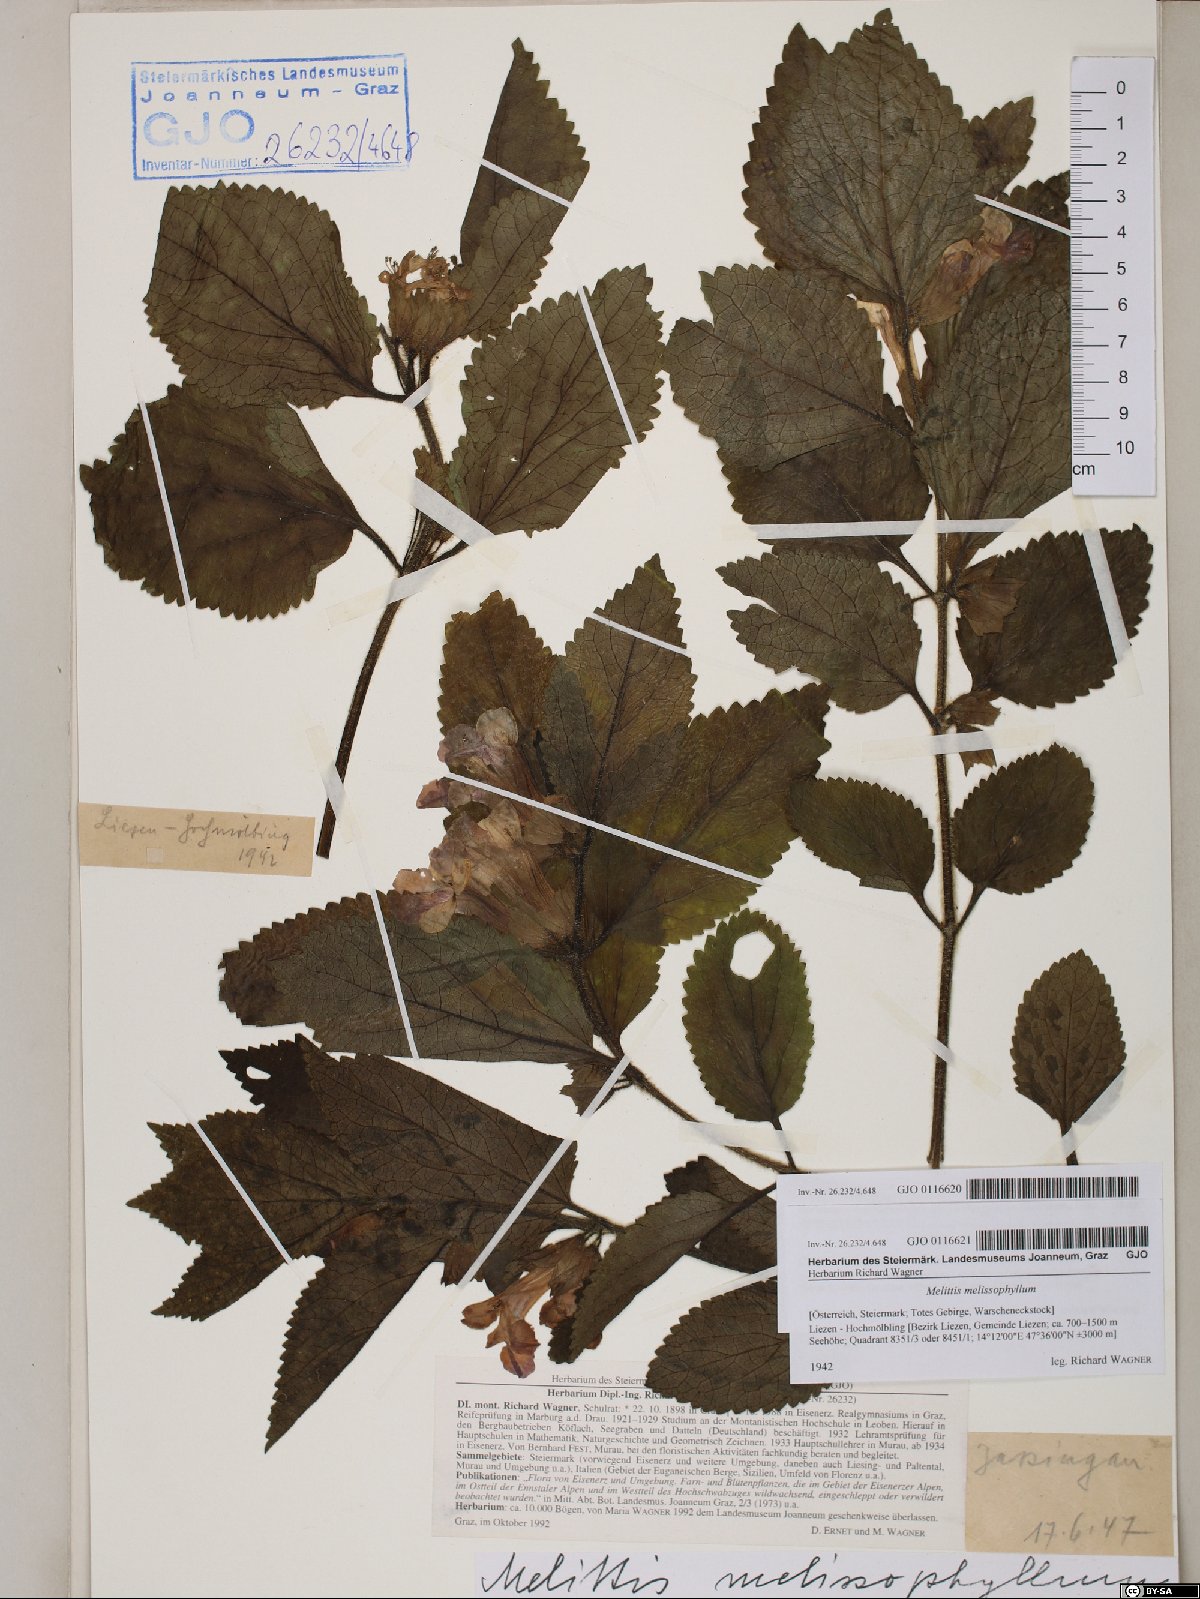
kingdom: Plantae
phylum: Tracheophyta
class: Magnoliopsida
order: Lamiales
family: Lamiaceae
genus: Melittis
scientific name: Melittis melissophyllum
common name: Bastard balm
